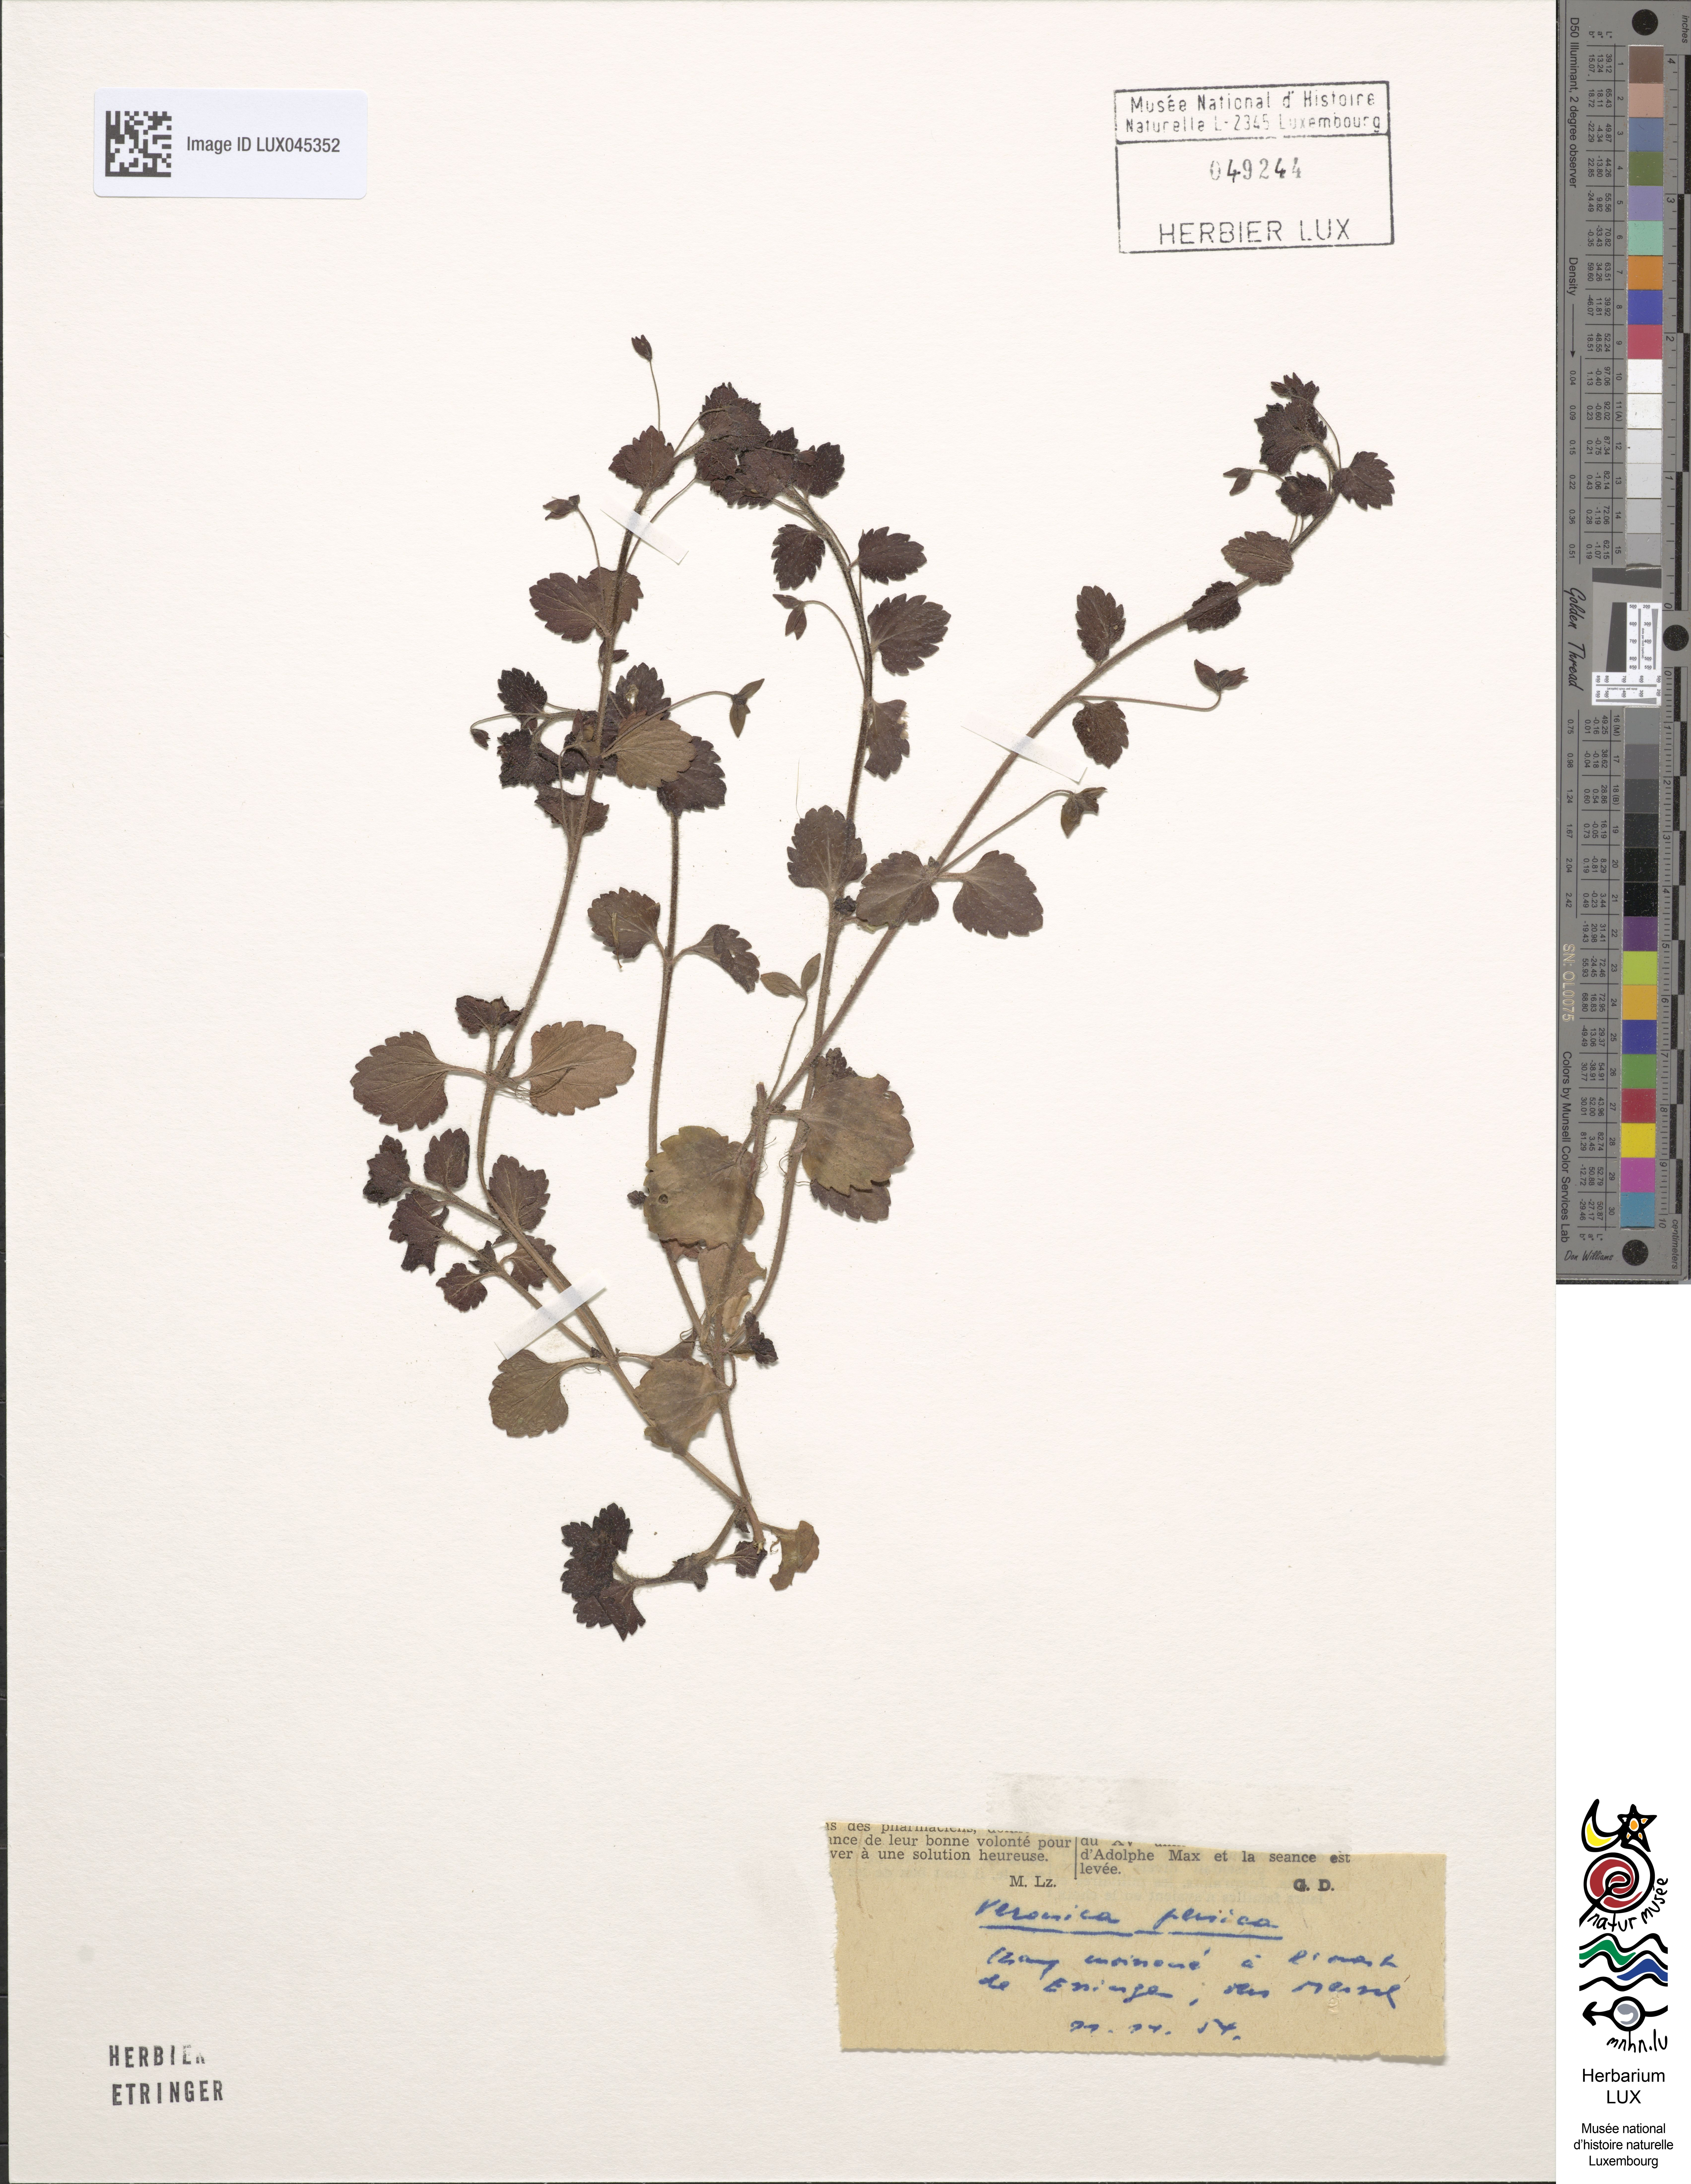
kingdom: Plantae
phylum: Tracheophyta
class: Magnoliopsida
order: Lamiales
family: Plantaginaceae
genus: Veronica
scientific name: Veronica persica
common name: Common field-speedwell
